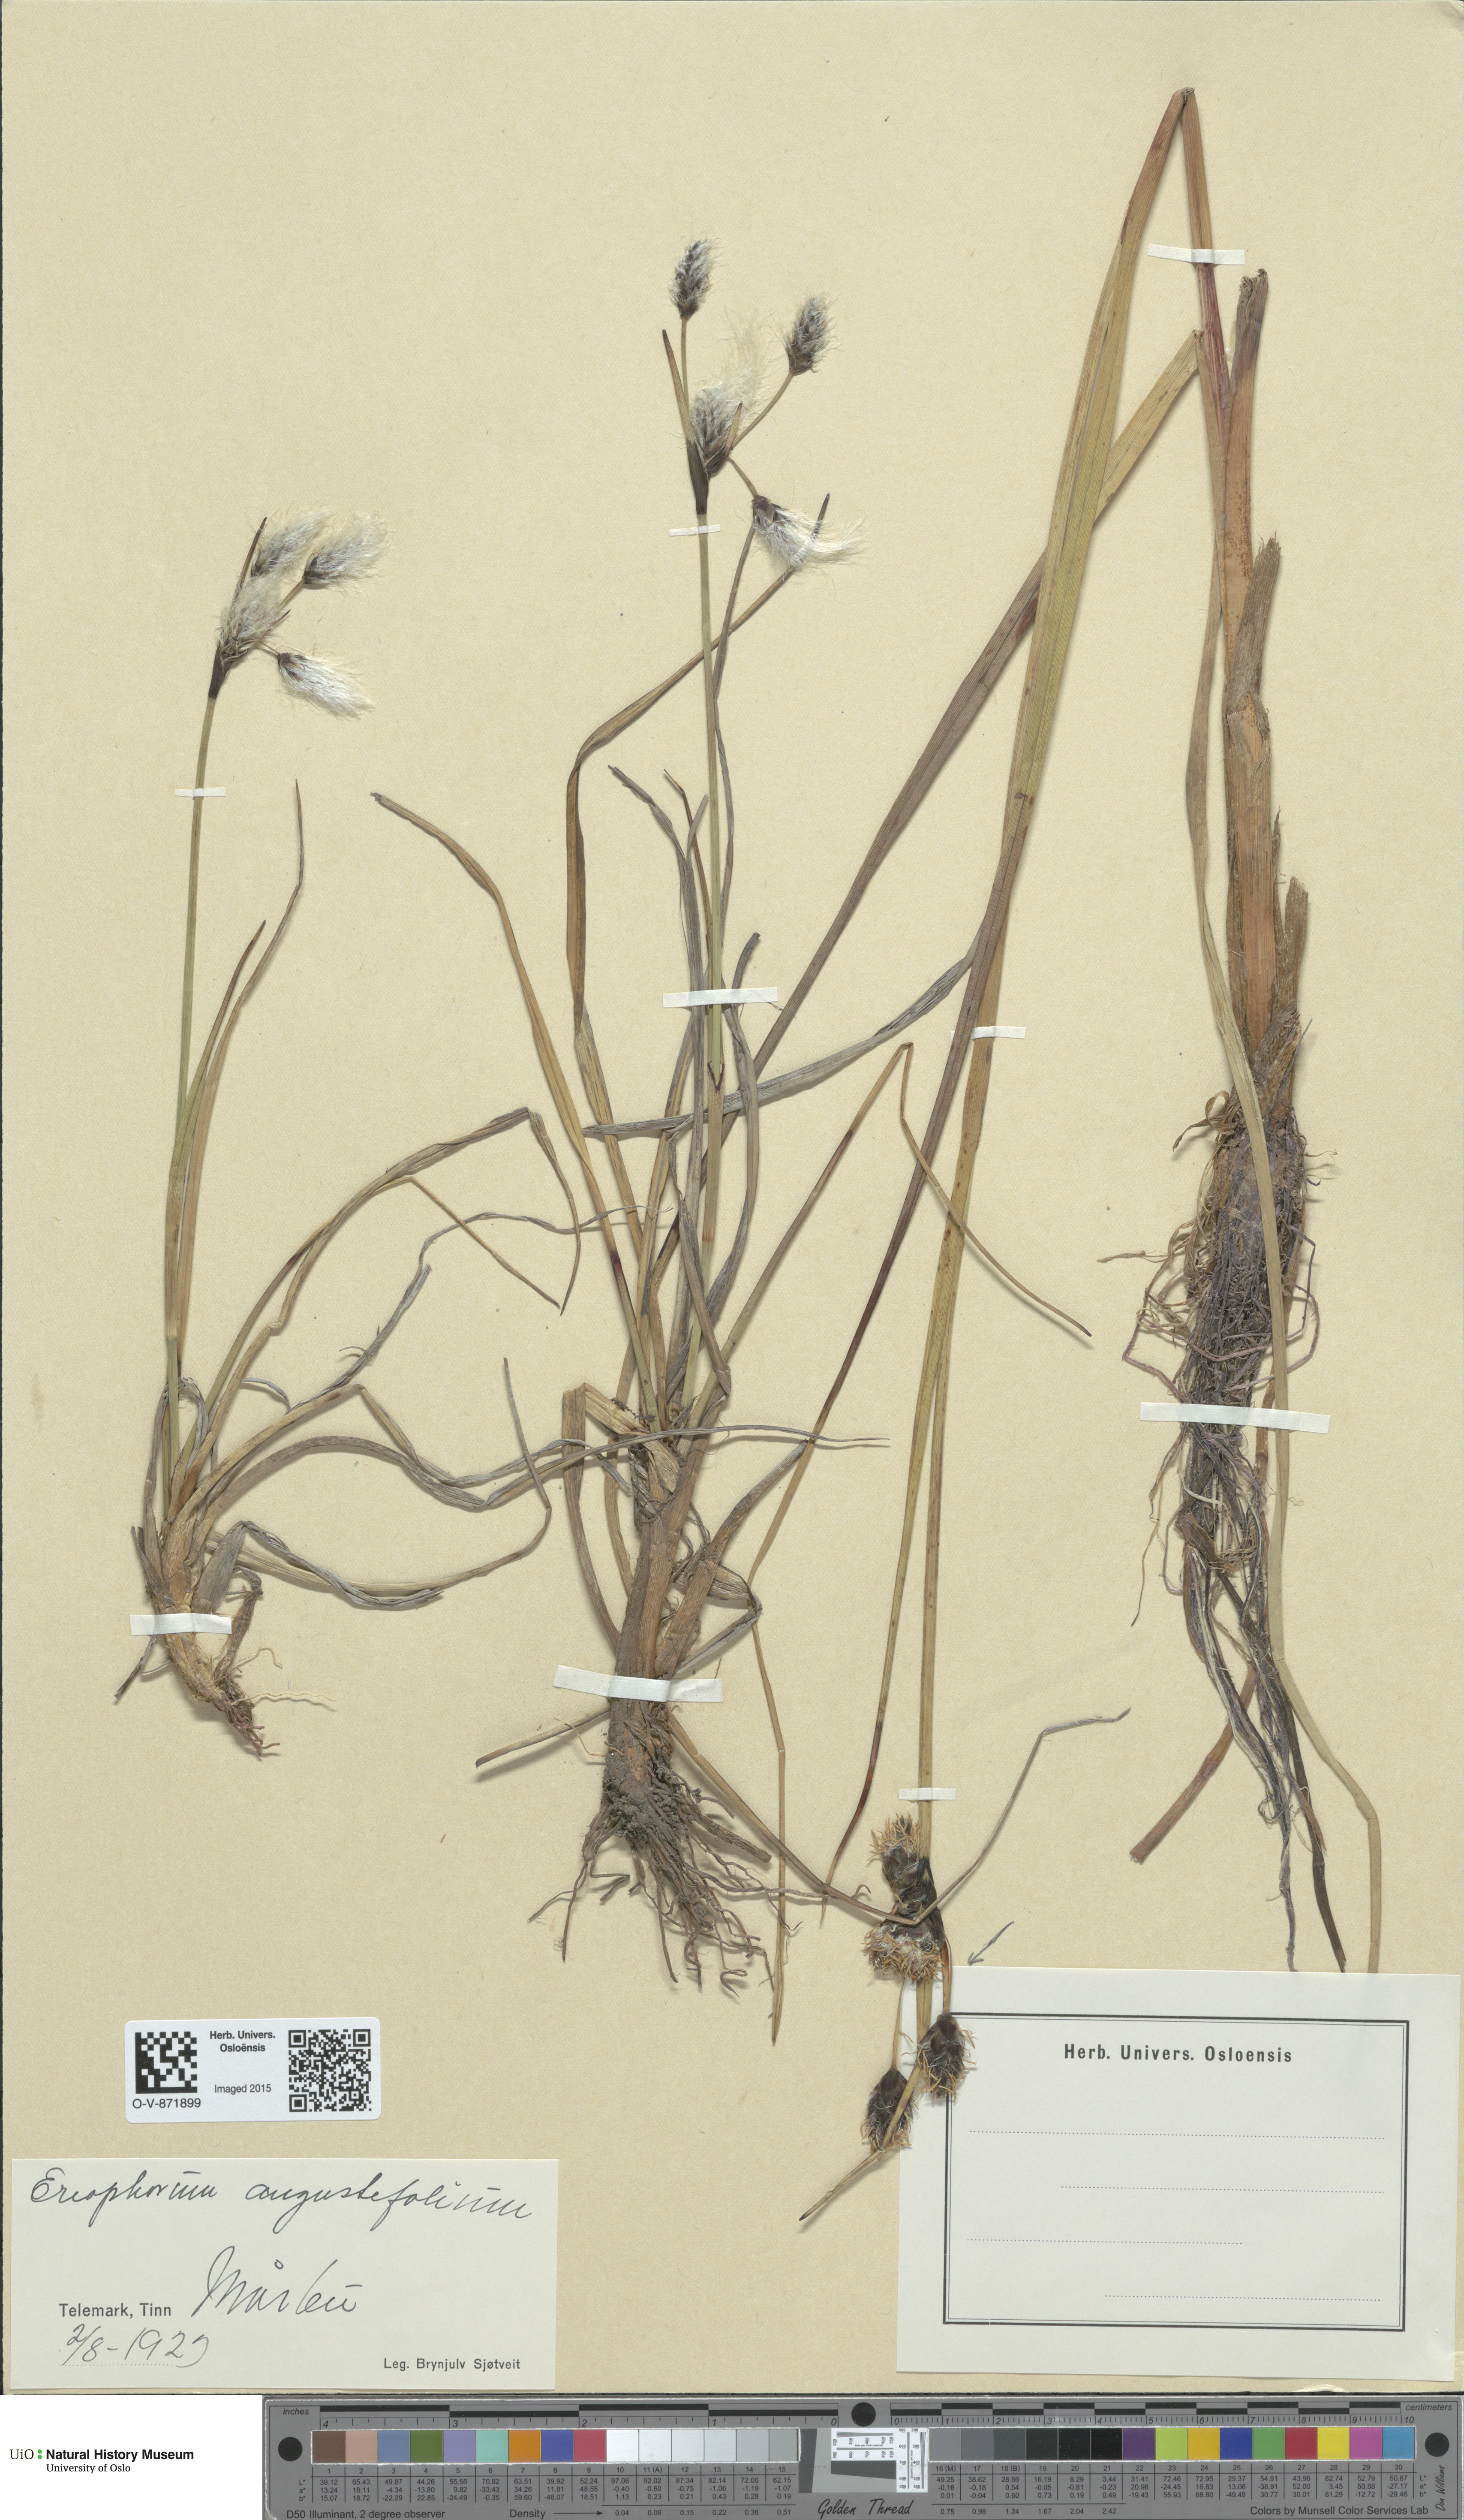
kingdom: Plantae
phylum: Tracheophyta
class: Liliopsida
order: Poales
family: Cyperaceae
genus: Eriophorum
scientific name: Eriophorum angustifolium
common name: Common cottongrass
